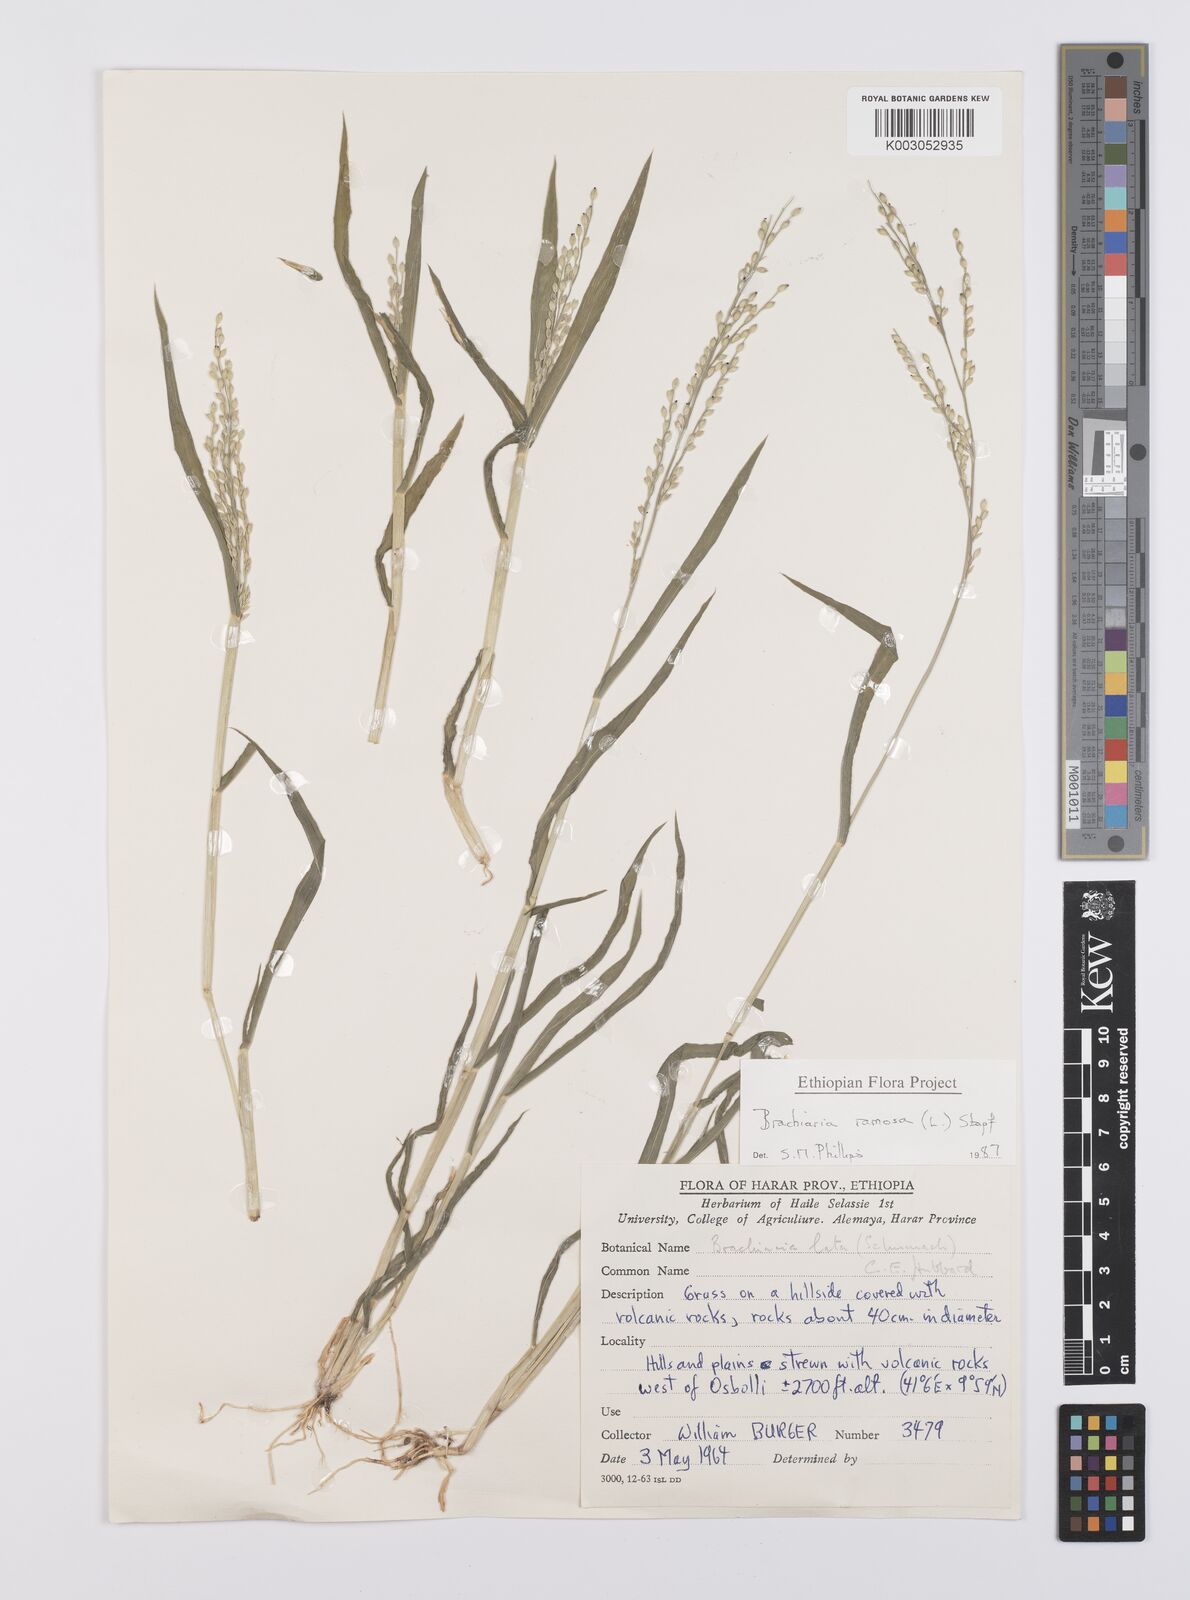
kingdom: Plantae
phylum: Tracheophyta
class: Liliopsida
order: Poales
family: Poaceae
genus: Urochloa
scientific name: Urochloa ramosa
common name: Browntop millet
